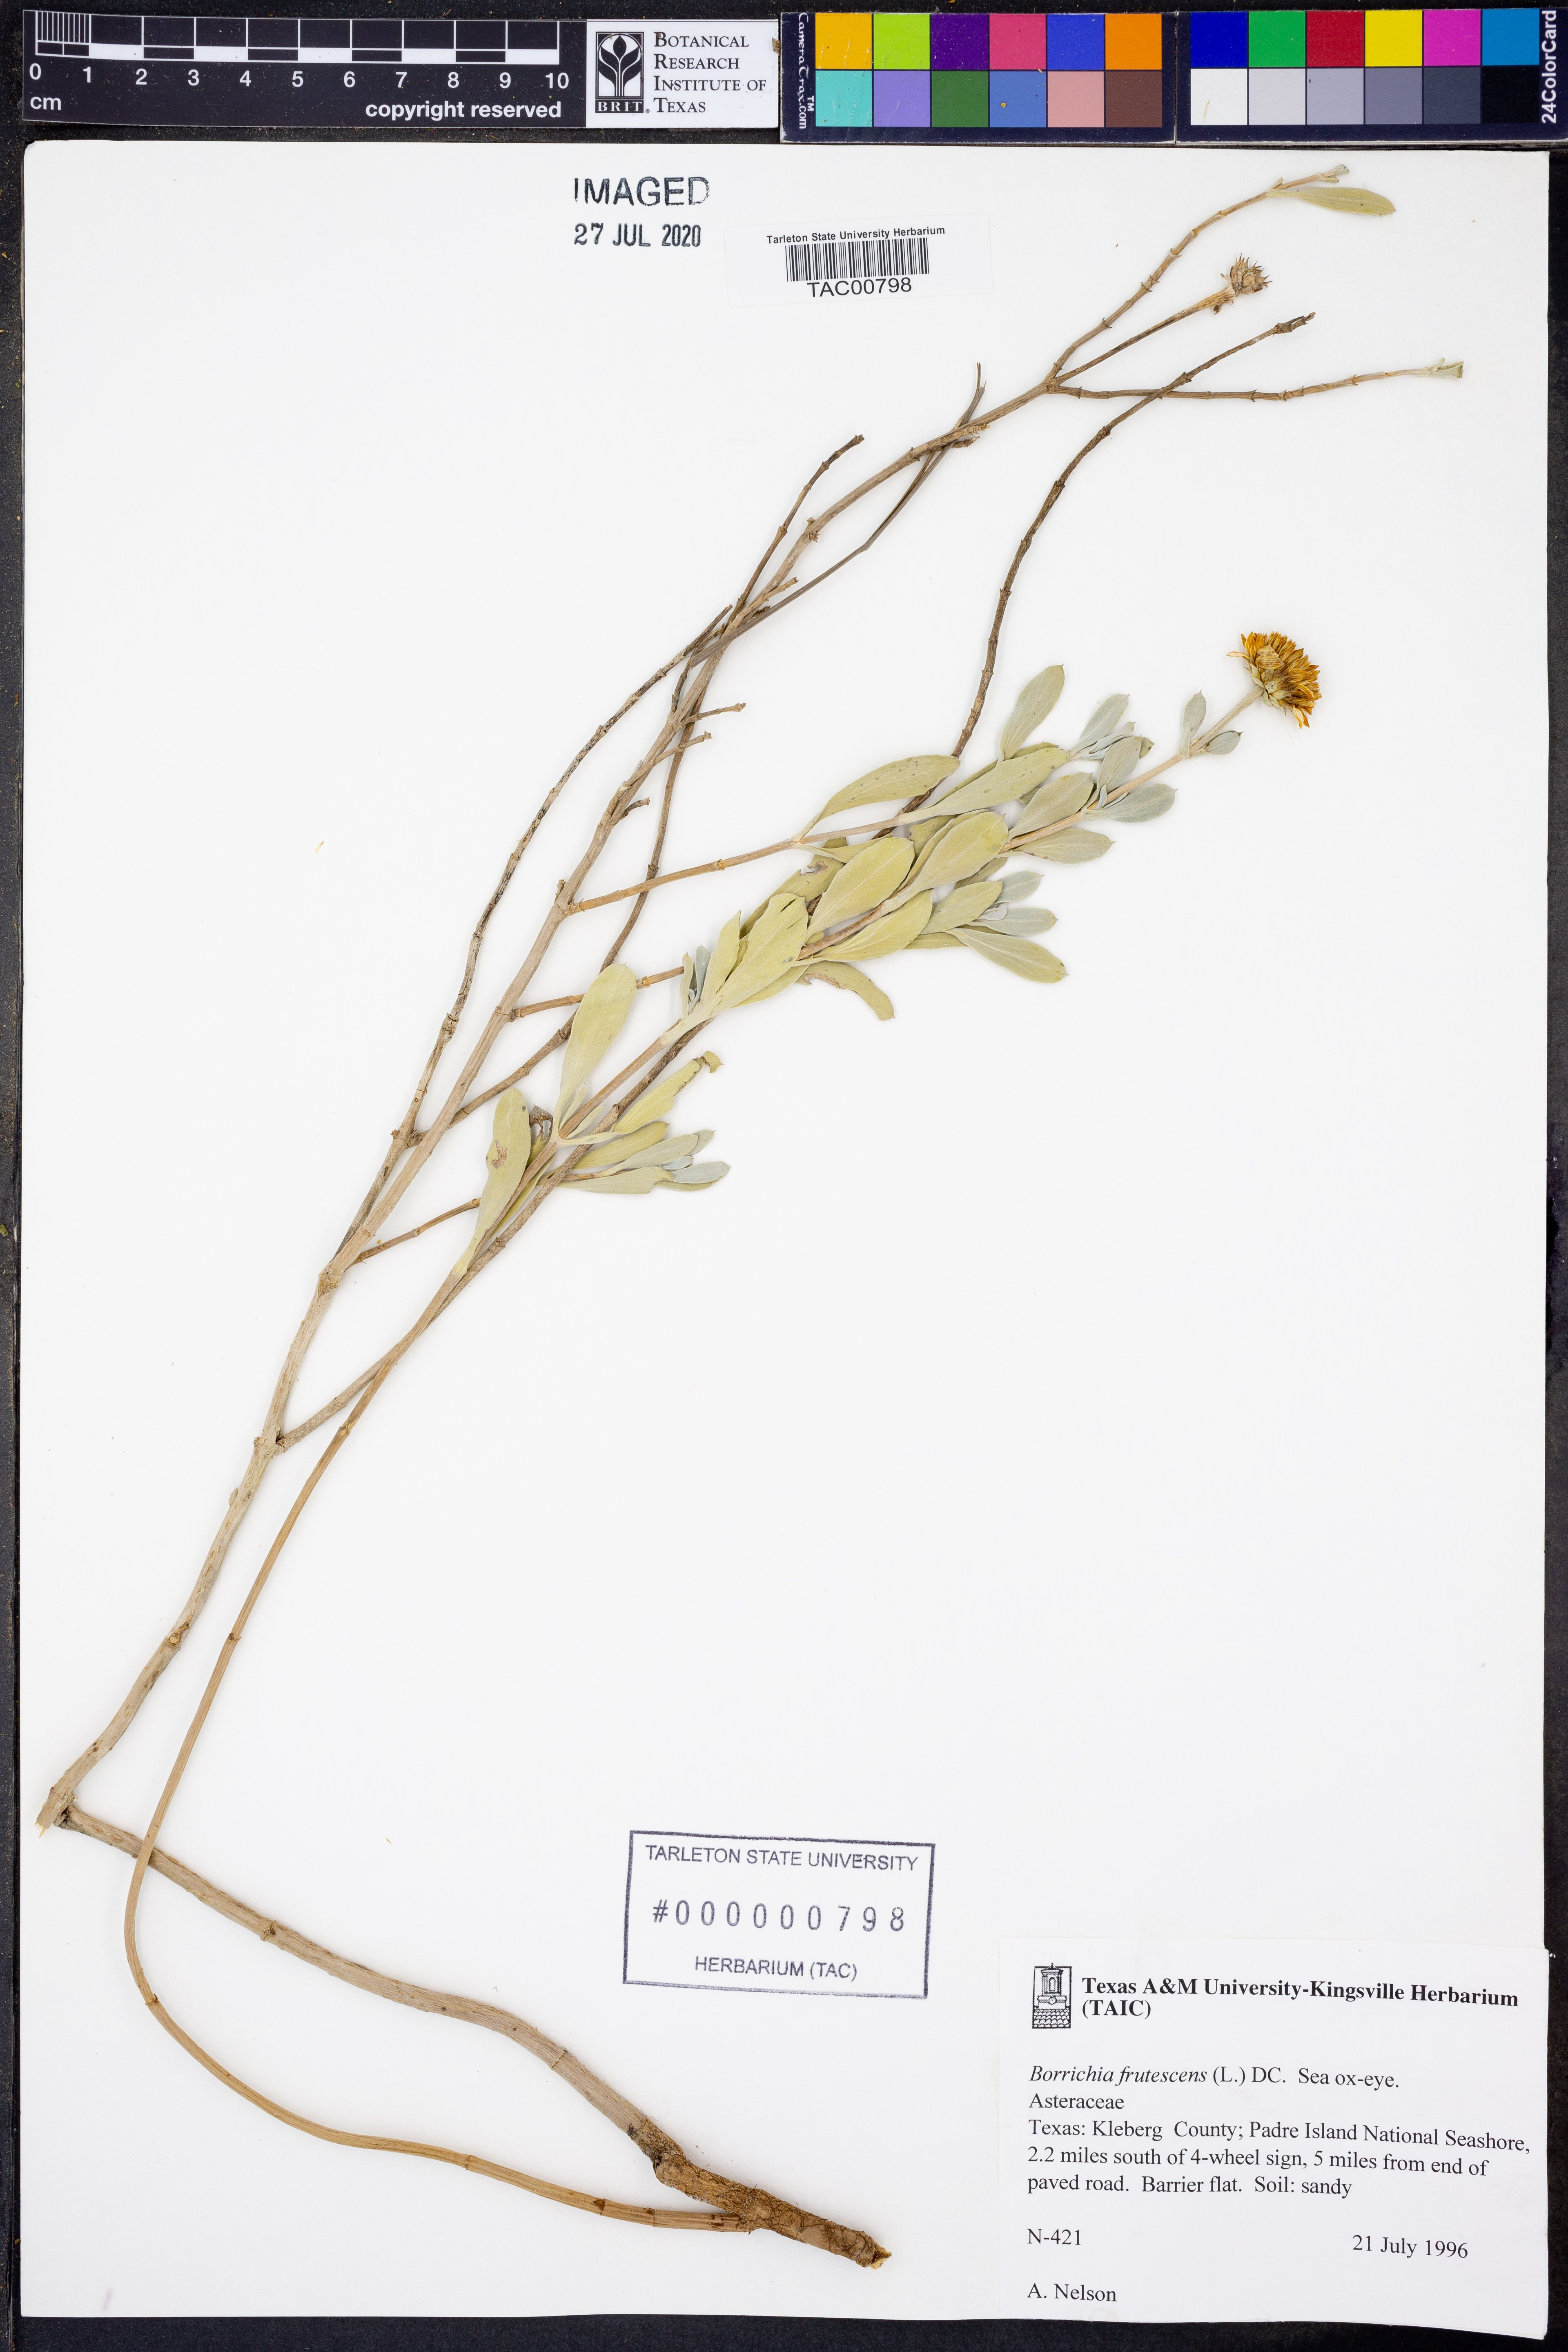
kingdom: Plantae
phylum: Tracheophyta
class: Magnoliopsida
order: Asterales
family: Asteraceae
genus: Borrichia
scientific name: Borrichia frutescens
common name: Sea oxeye
